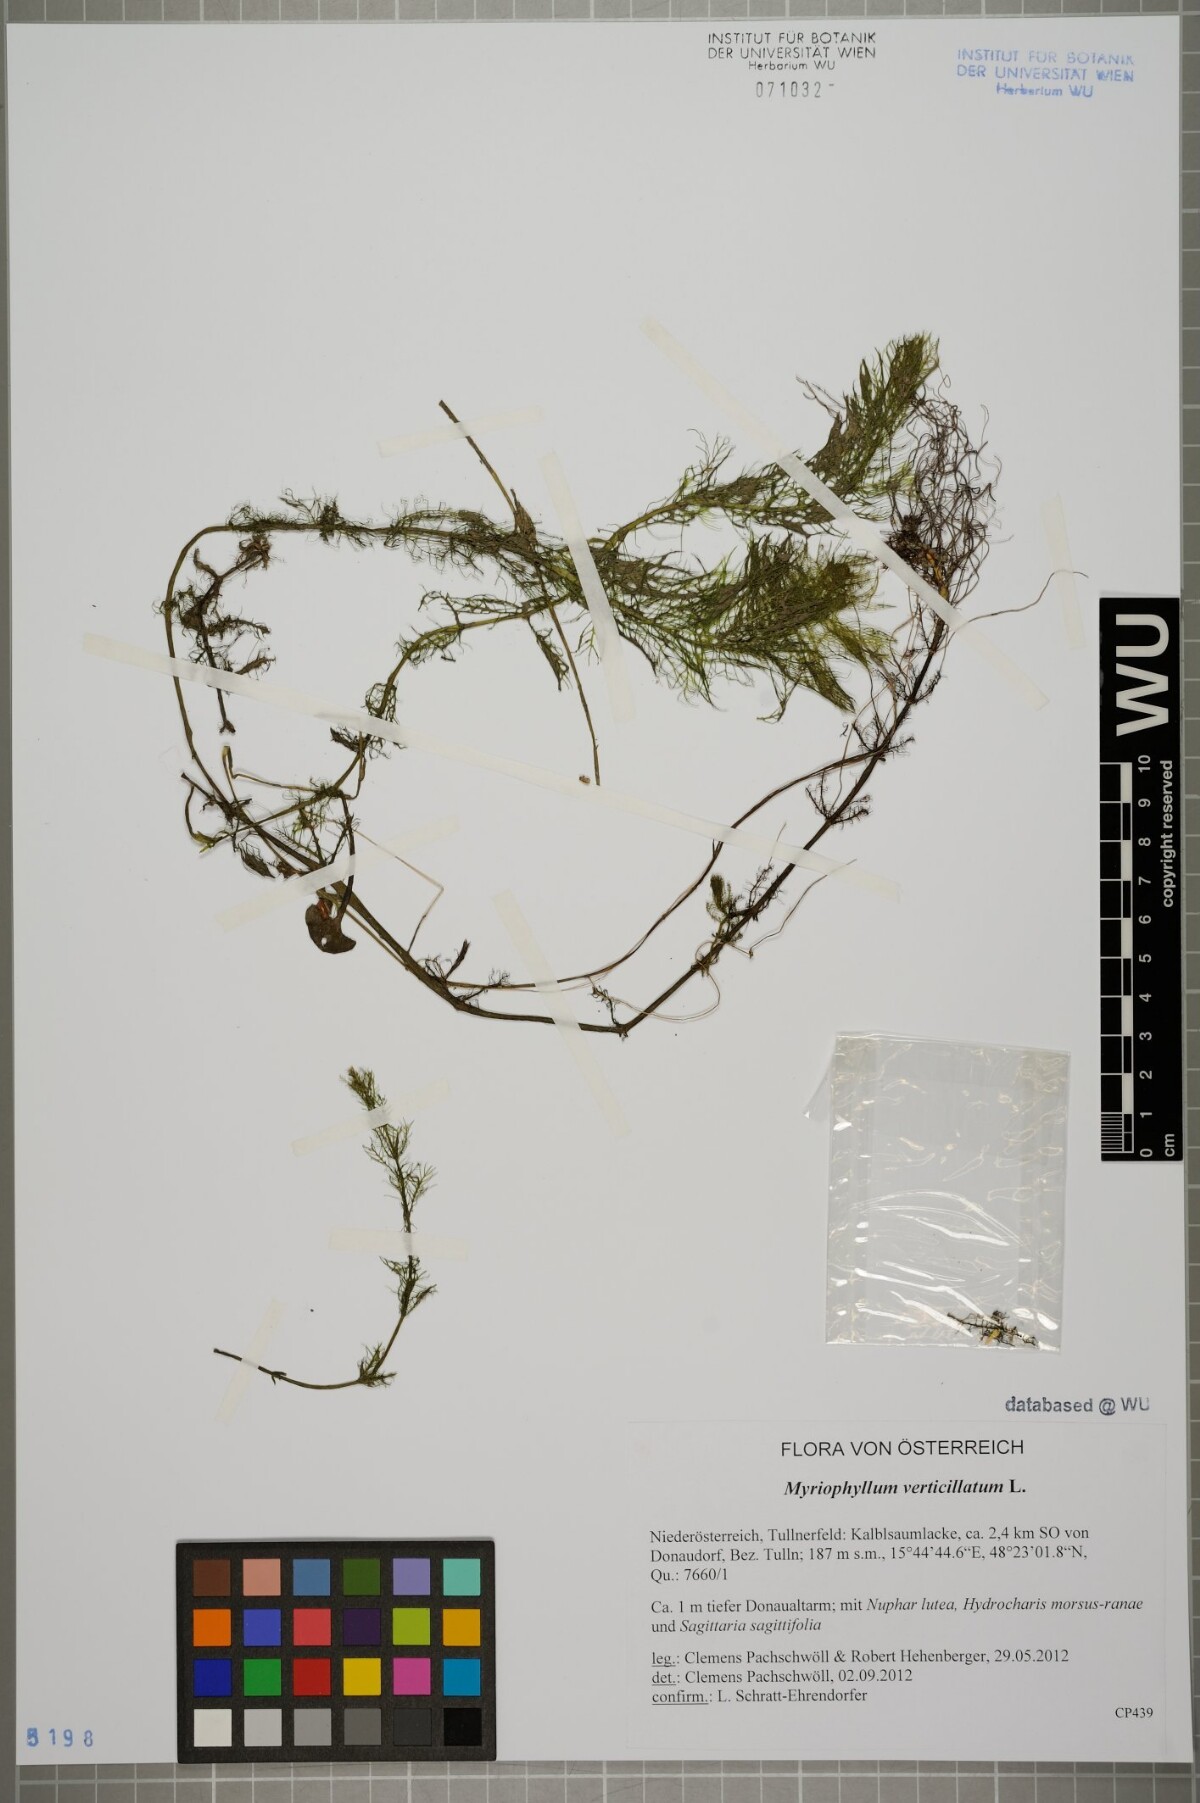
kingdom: Plantae
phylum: Tracheophyta
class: Magnoliopsida
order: Saxifragales
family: Haloragaceae
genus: Myriophyllum
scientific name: Myriophyllum verticillatum
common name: Whorled water-milfoil
